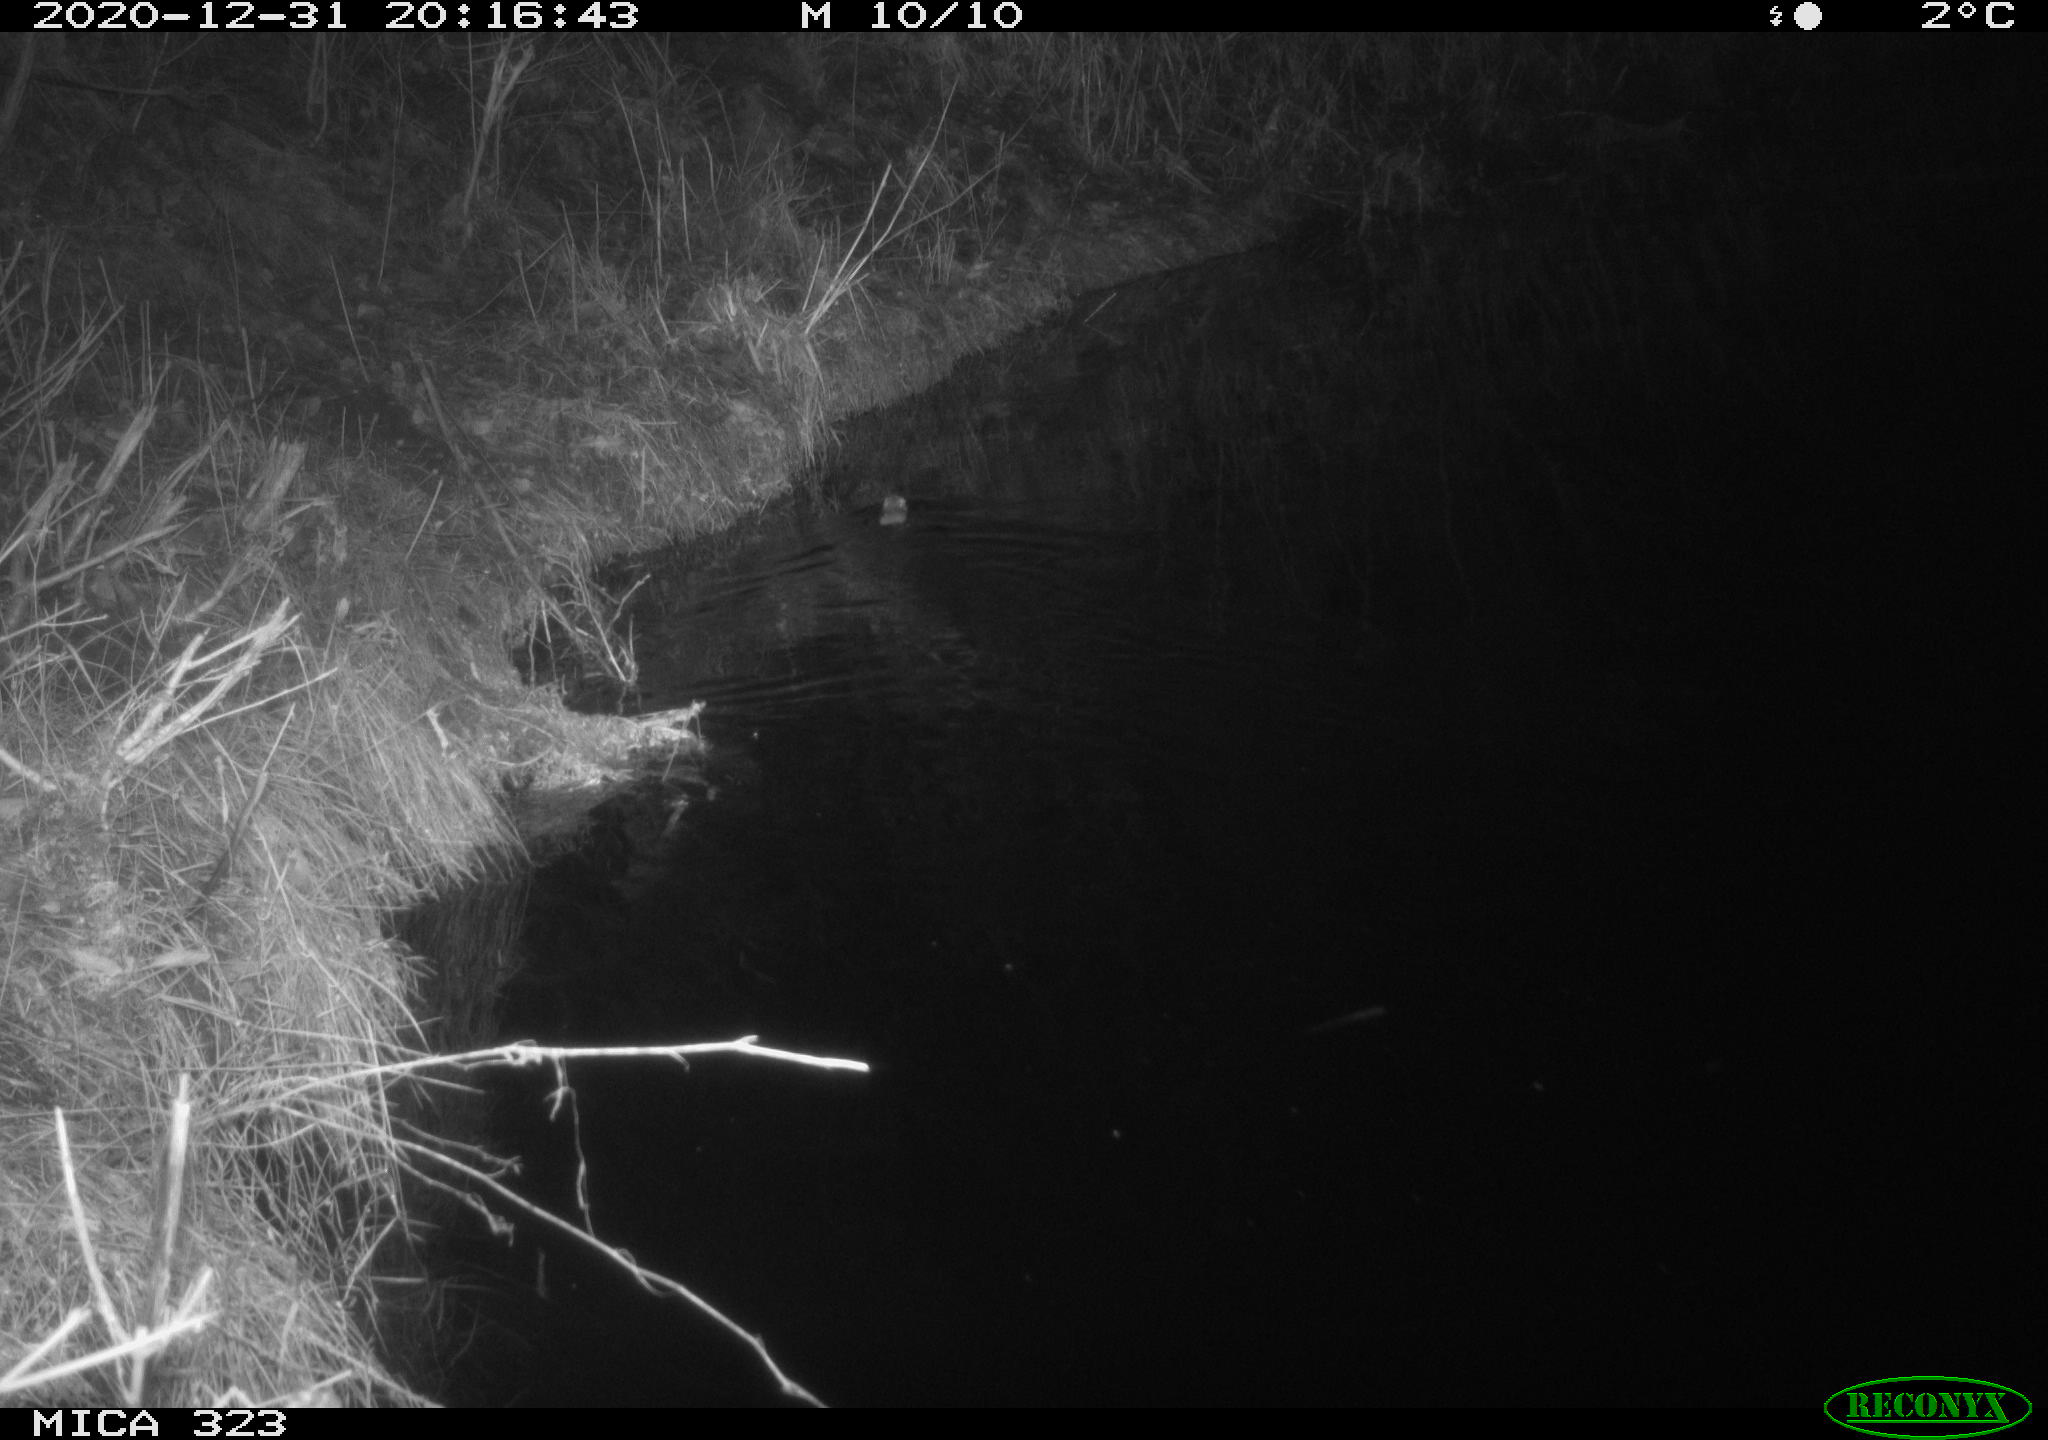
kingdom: Animalia
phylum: Chordata
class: Mammalia
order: Rodentia
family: Muridae
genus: Rattus
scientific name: Rattus norvegicus
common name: Brown rat
